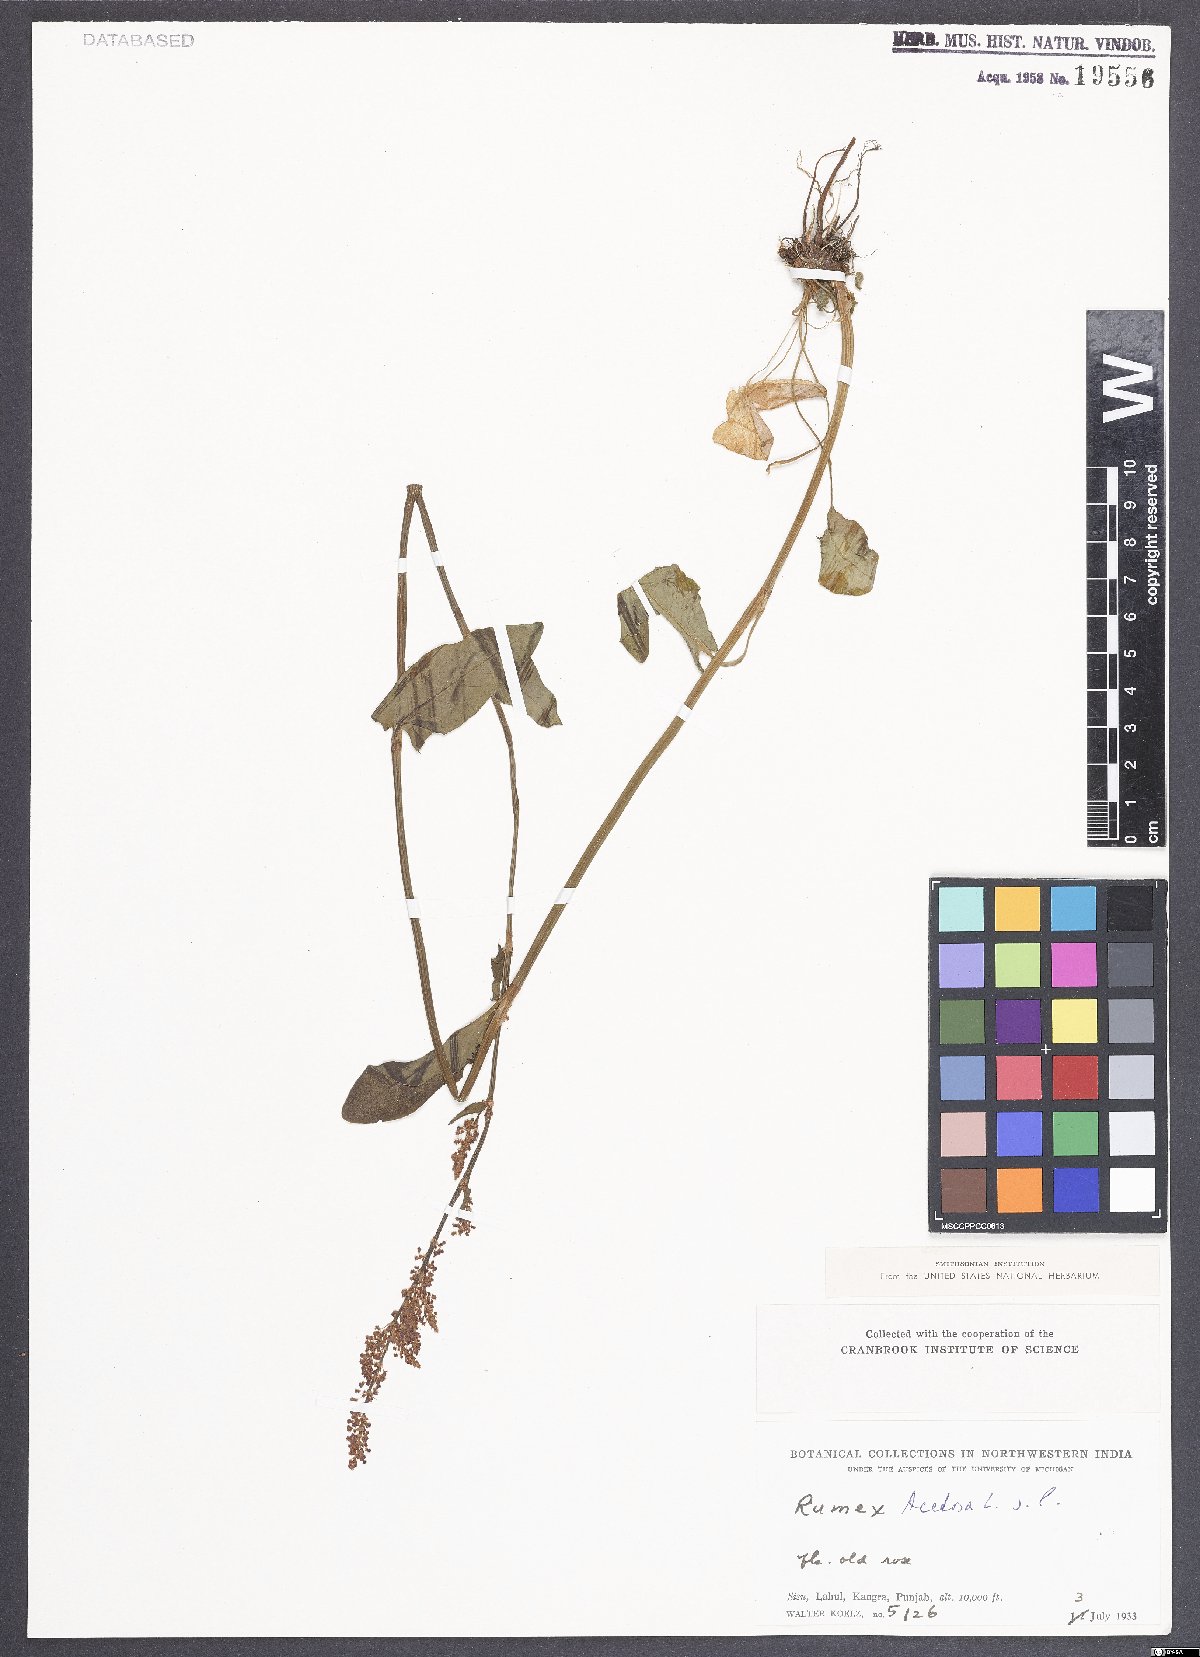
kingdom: Plantae
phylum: Tracheophyta
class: Magnoliopsida
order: Caryophyllales
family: Polygonaceae
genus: Rumex
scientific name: Rumex acetosa
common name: Garden sorrel
